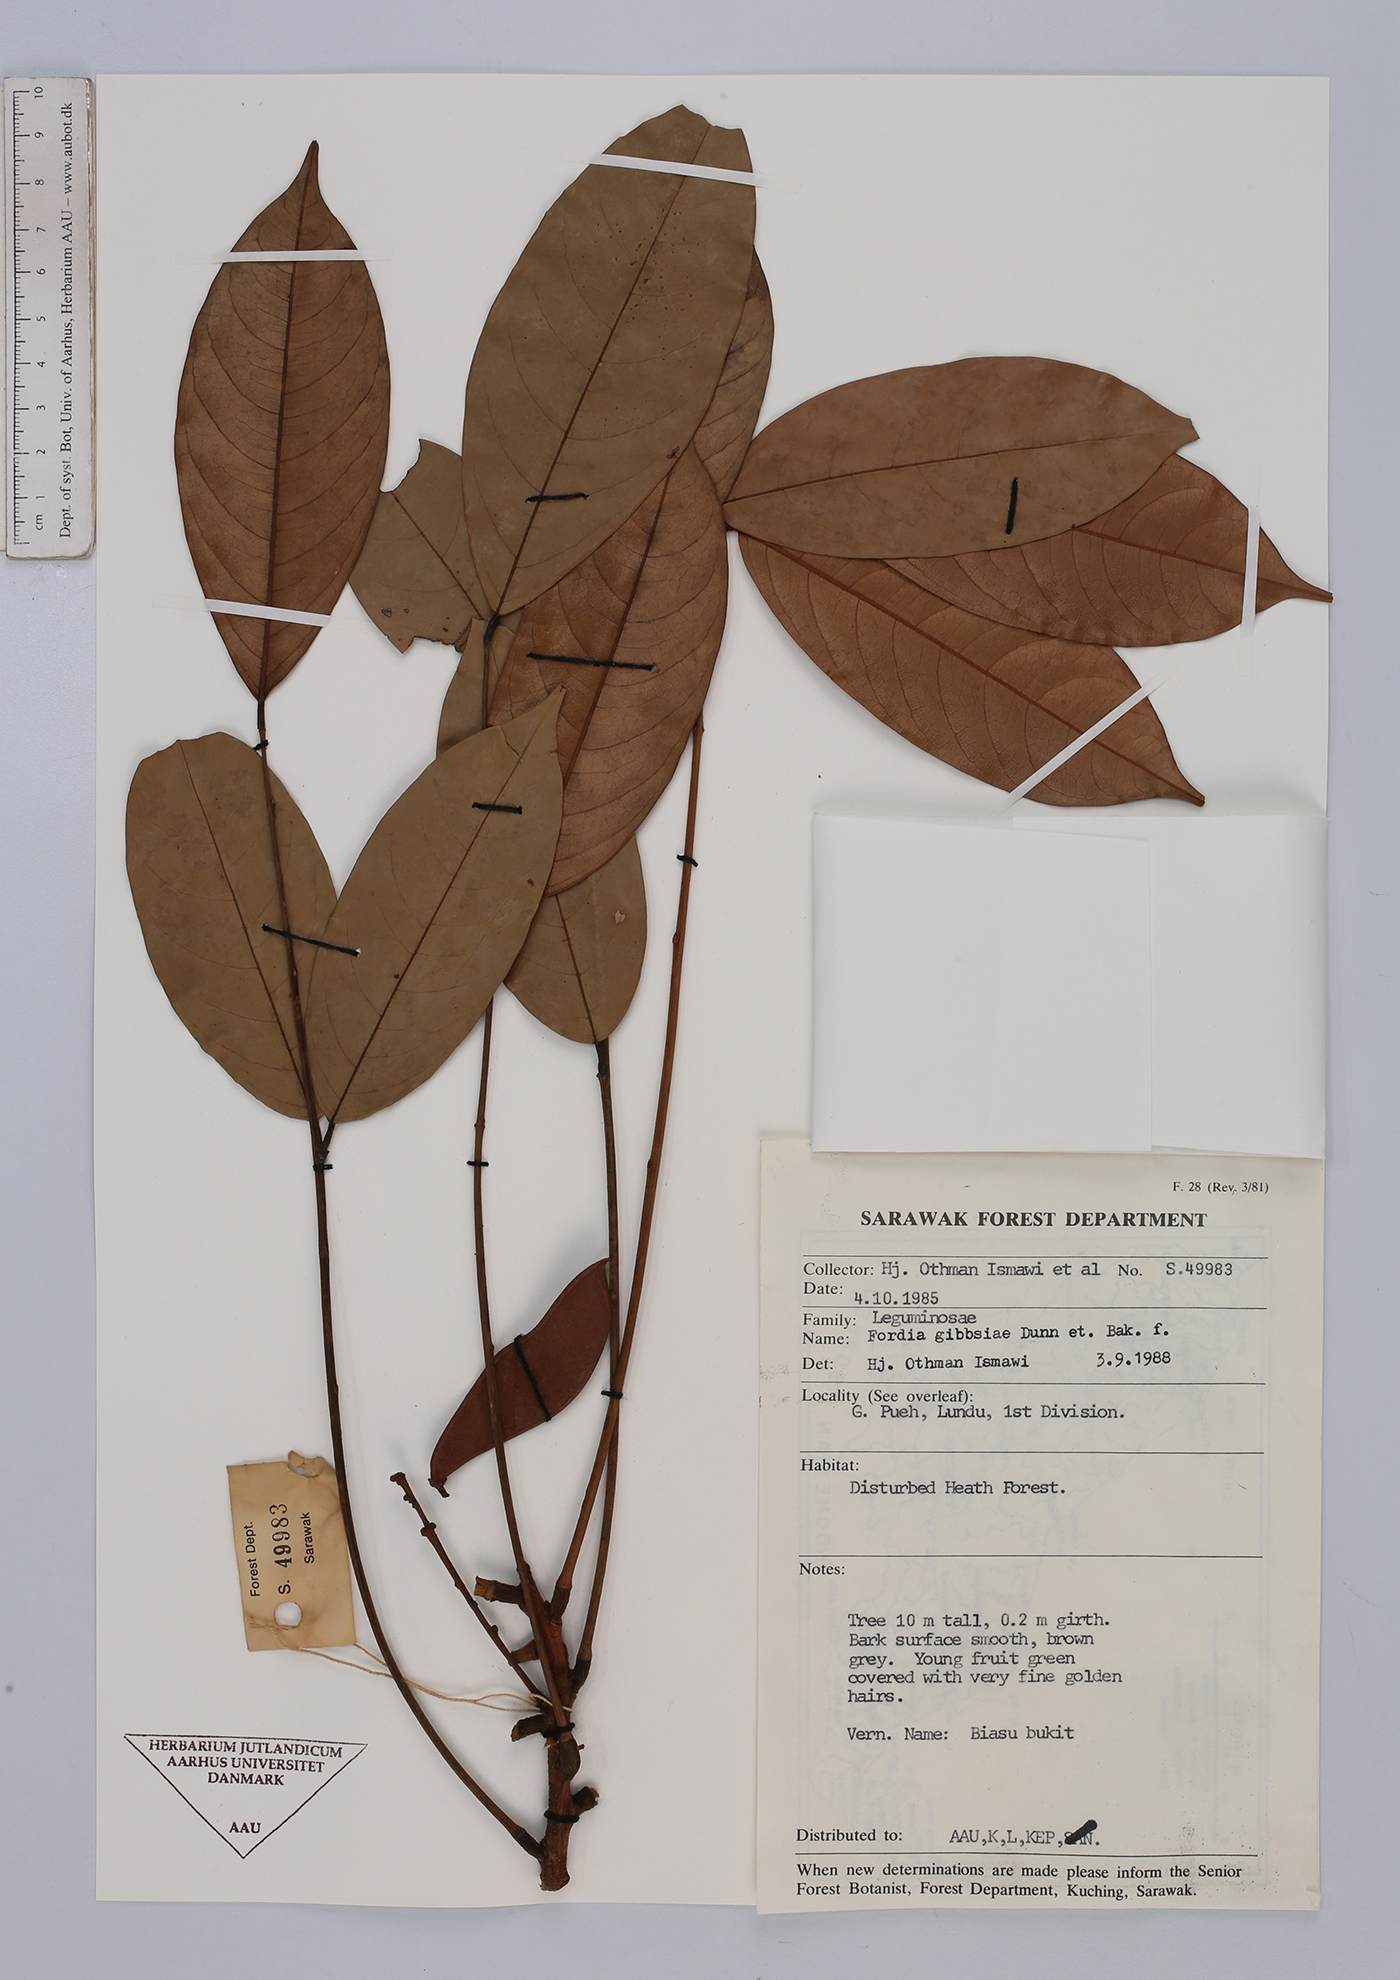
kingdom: Plantae
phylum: Tracheophyta
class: Magnoliopsida
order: Fabales
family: Fabaceae
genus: Fordia
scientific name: Fordia splendidissima
